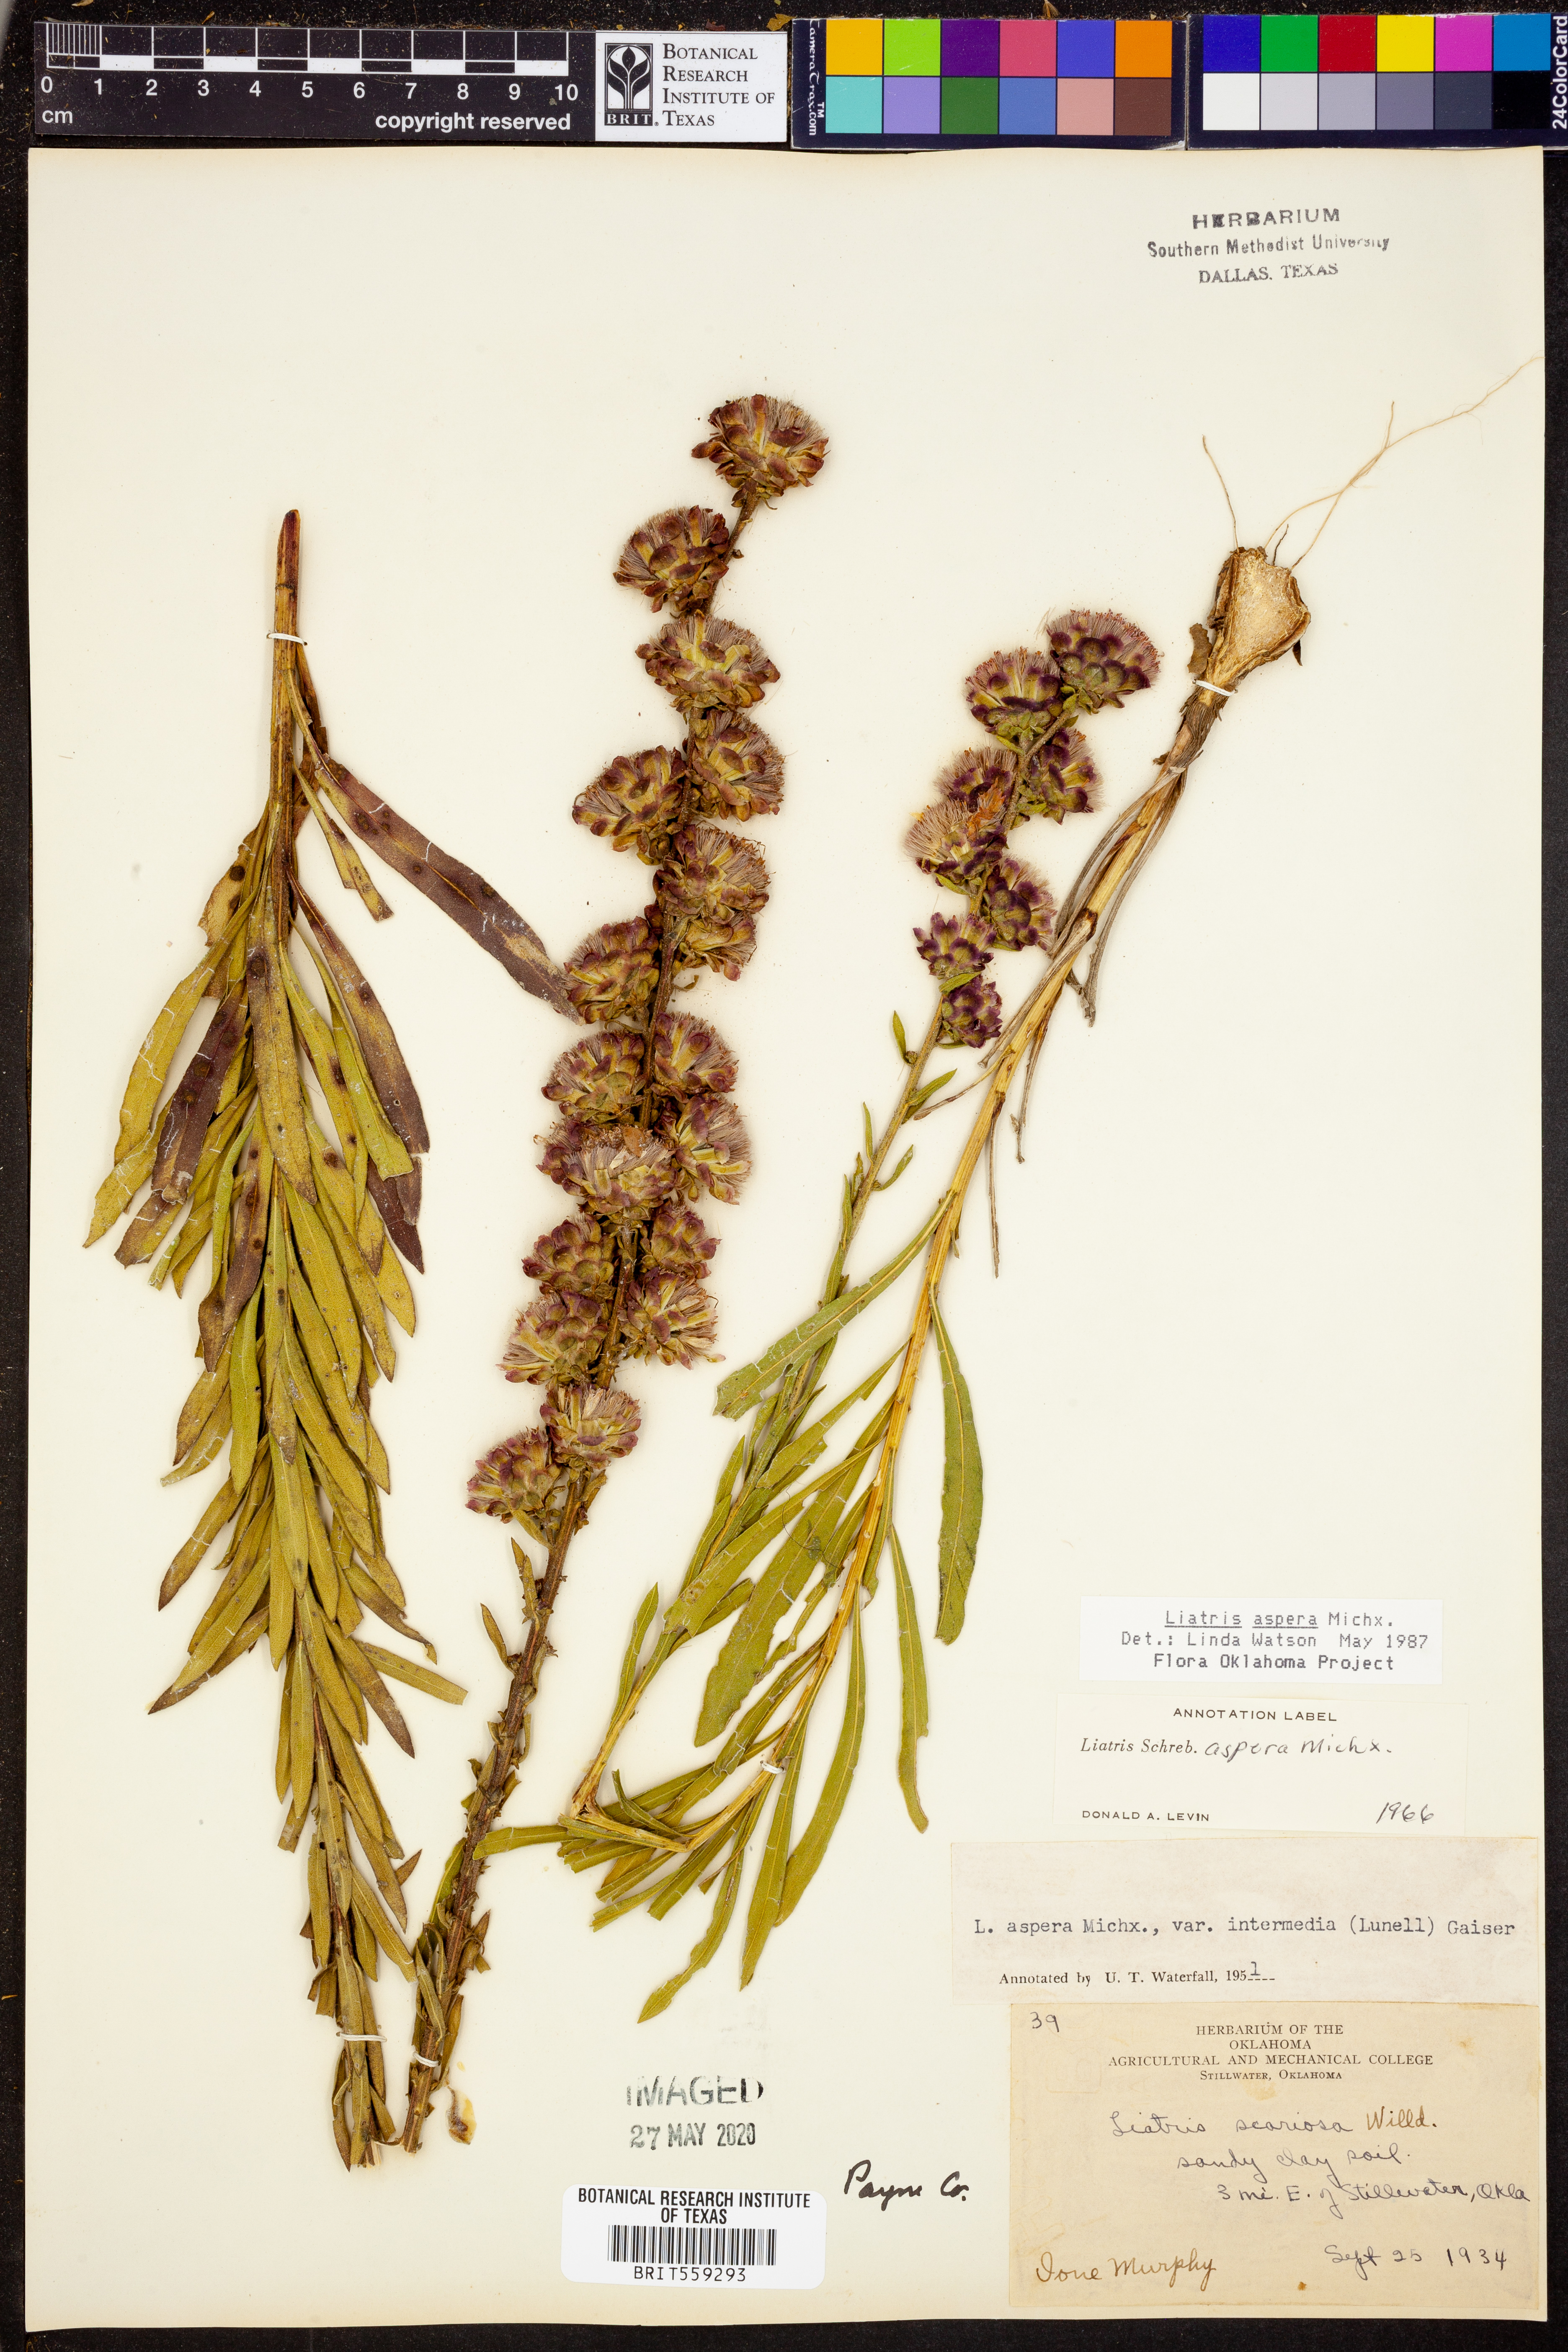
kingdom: Plantae
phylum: Tracheophyta
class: Magnoliopsida
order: Asterales
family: Asteraceae
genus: Liatris
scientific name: Liatris aspera
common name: Lacerate blazing-star
